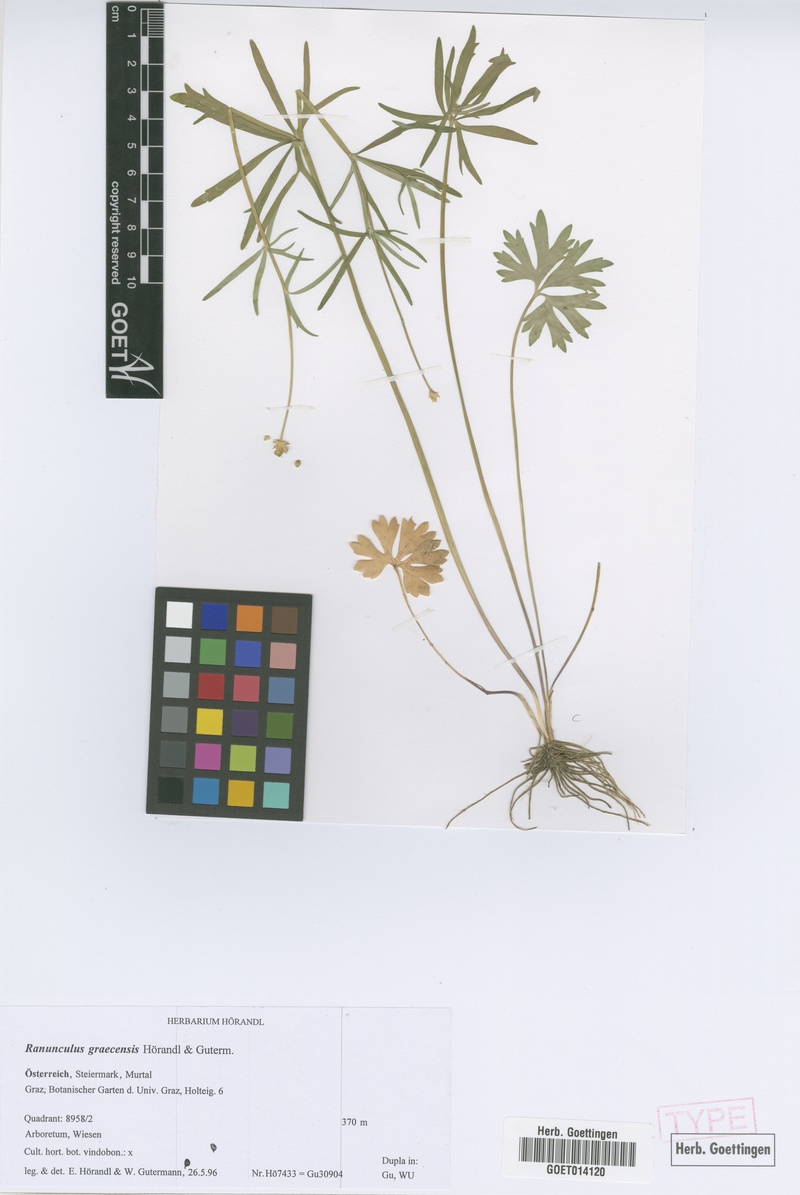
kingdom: Plantae
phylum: Tracheophyta
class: Magnoliopsida
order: Ranunculales
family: Ranunculaceae
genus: Ranunculus
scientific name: Ranunculus graecensis
